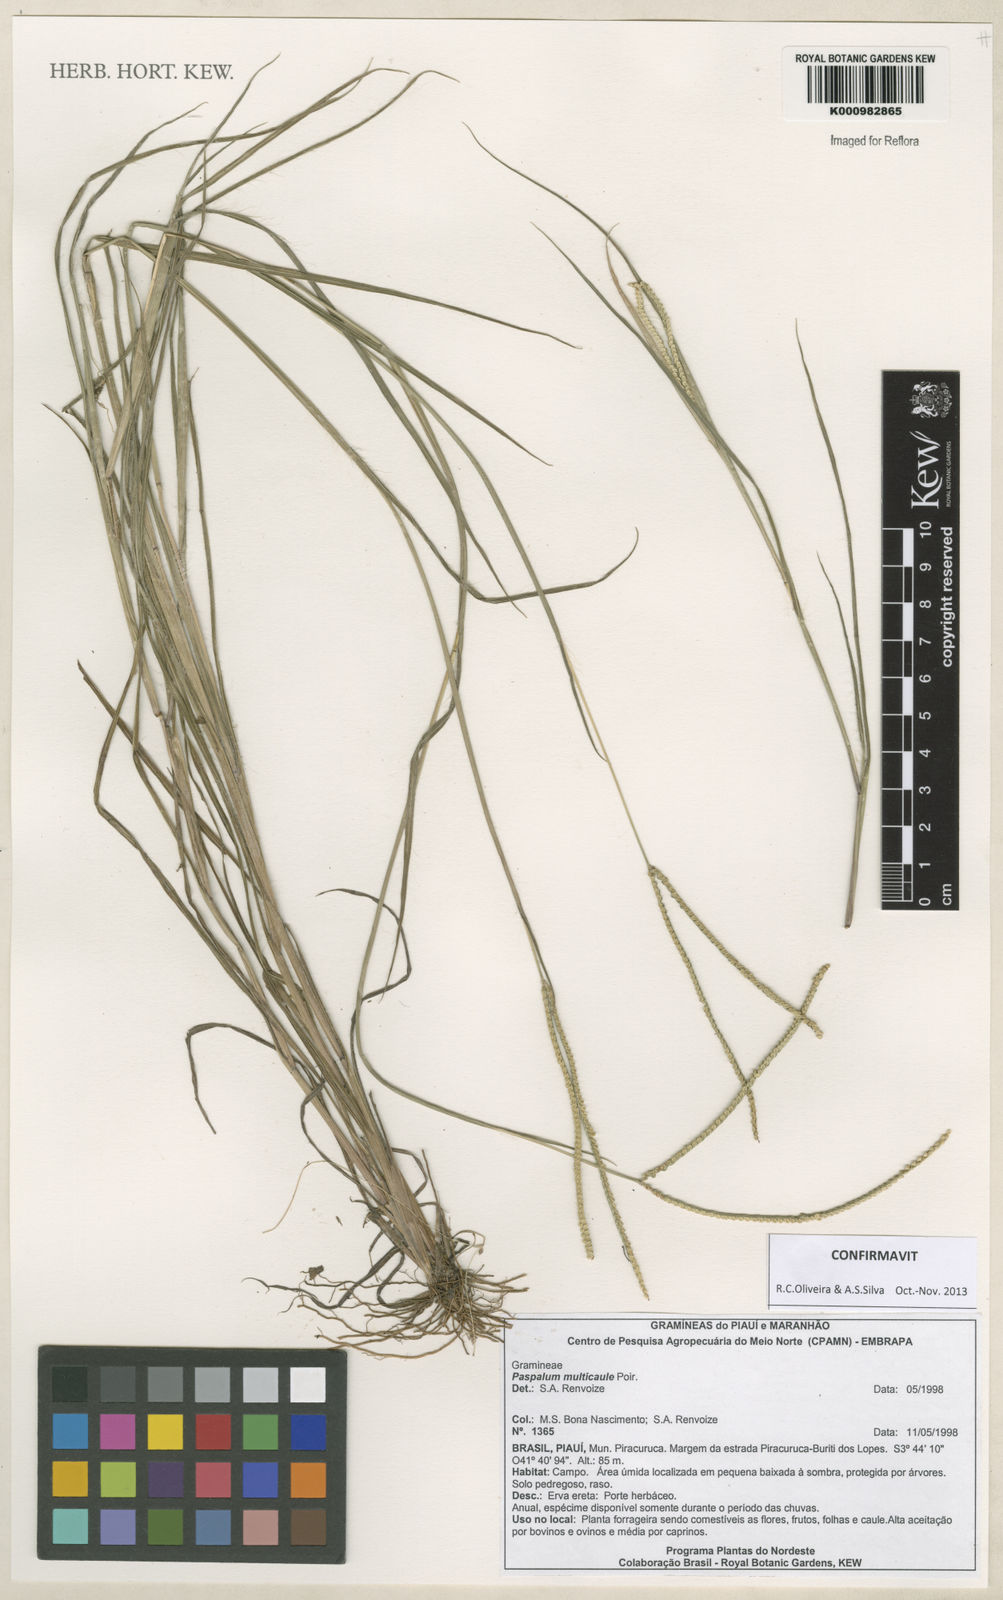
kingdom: Plantae
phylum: Tracheophyta
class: Liliopsida
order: Poales
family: Poaceae
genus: Paspalum
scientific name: Paspalum multicaule
